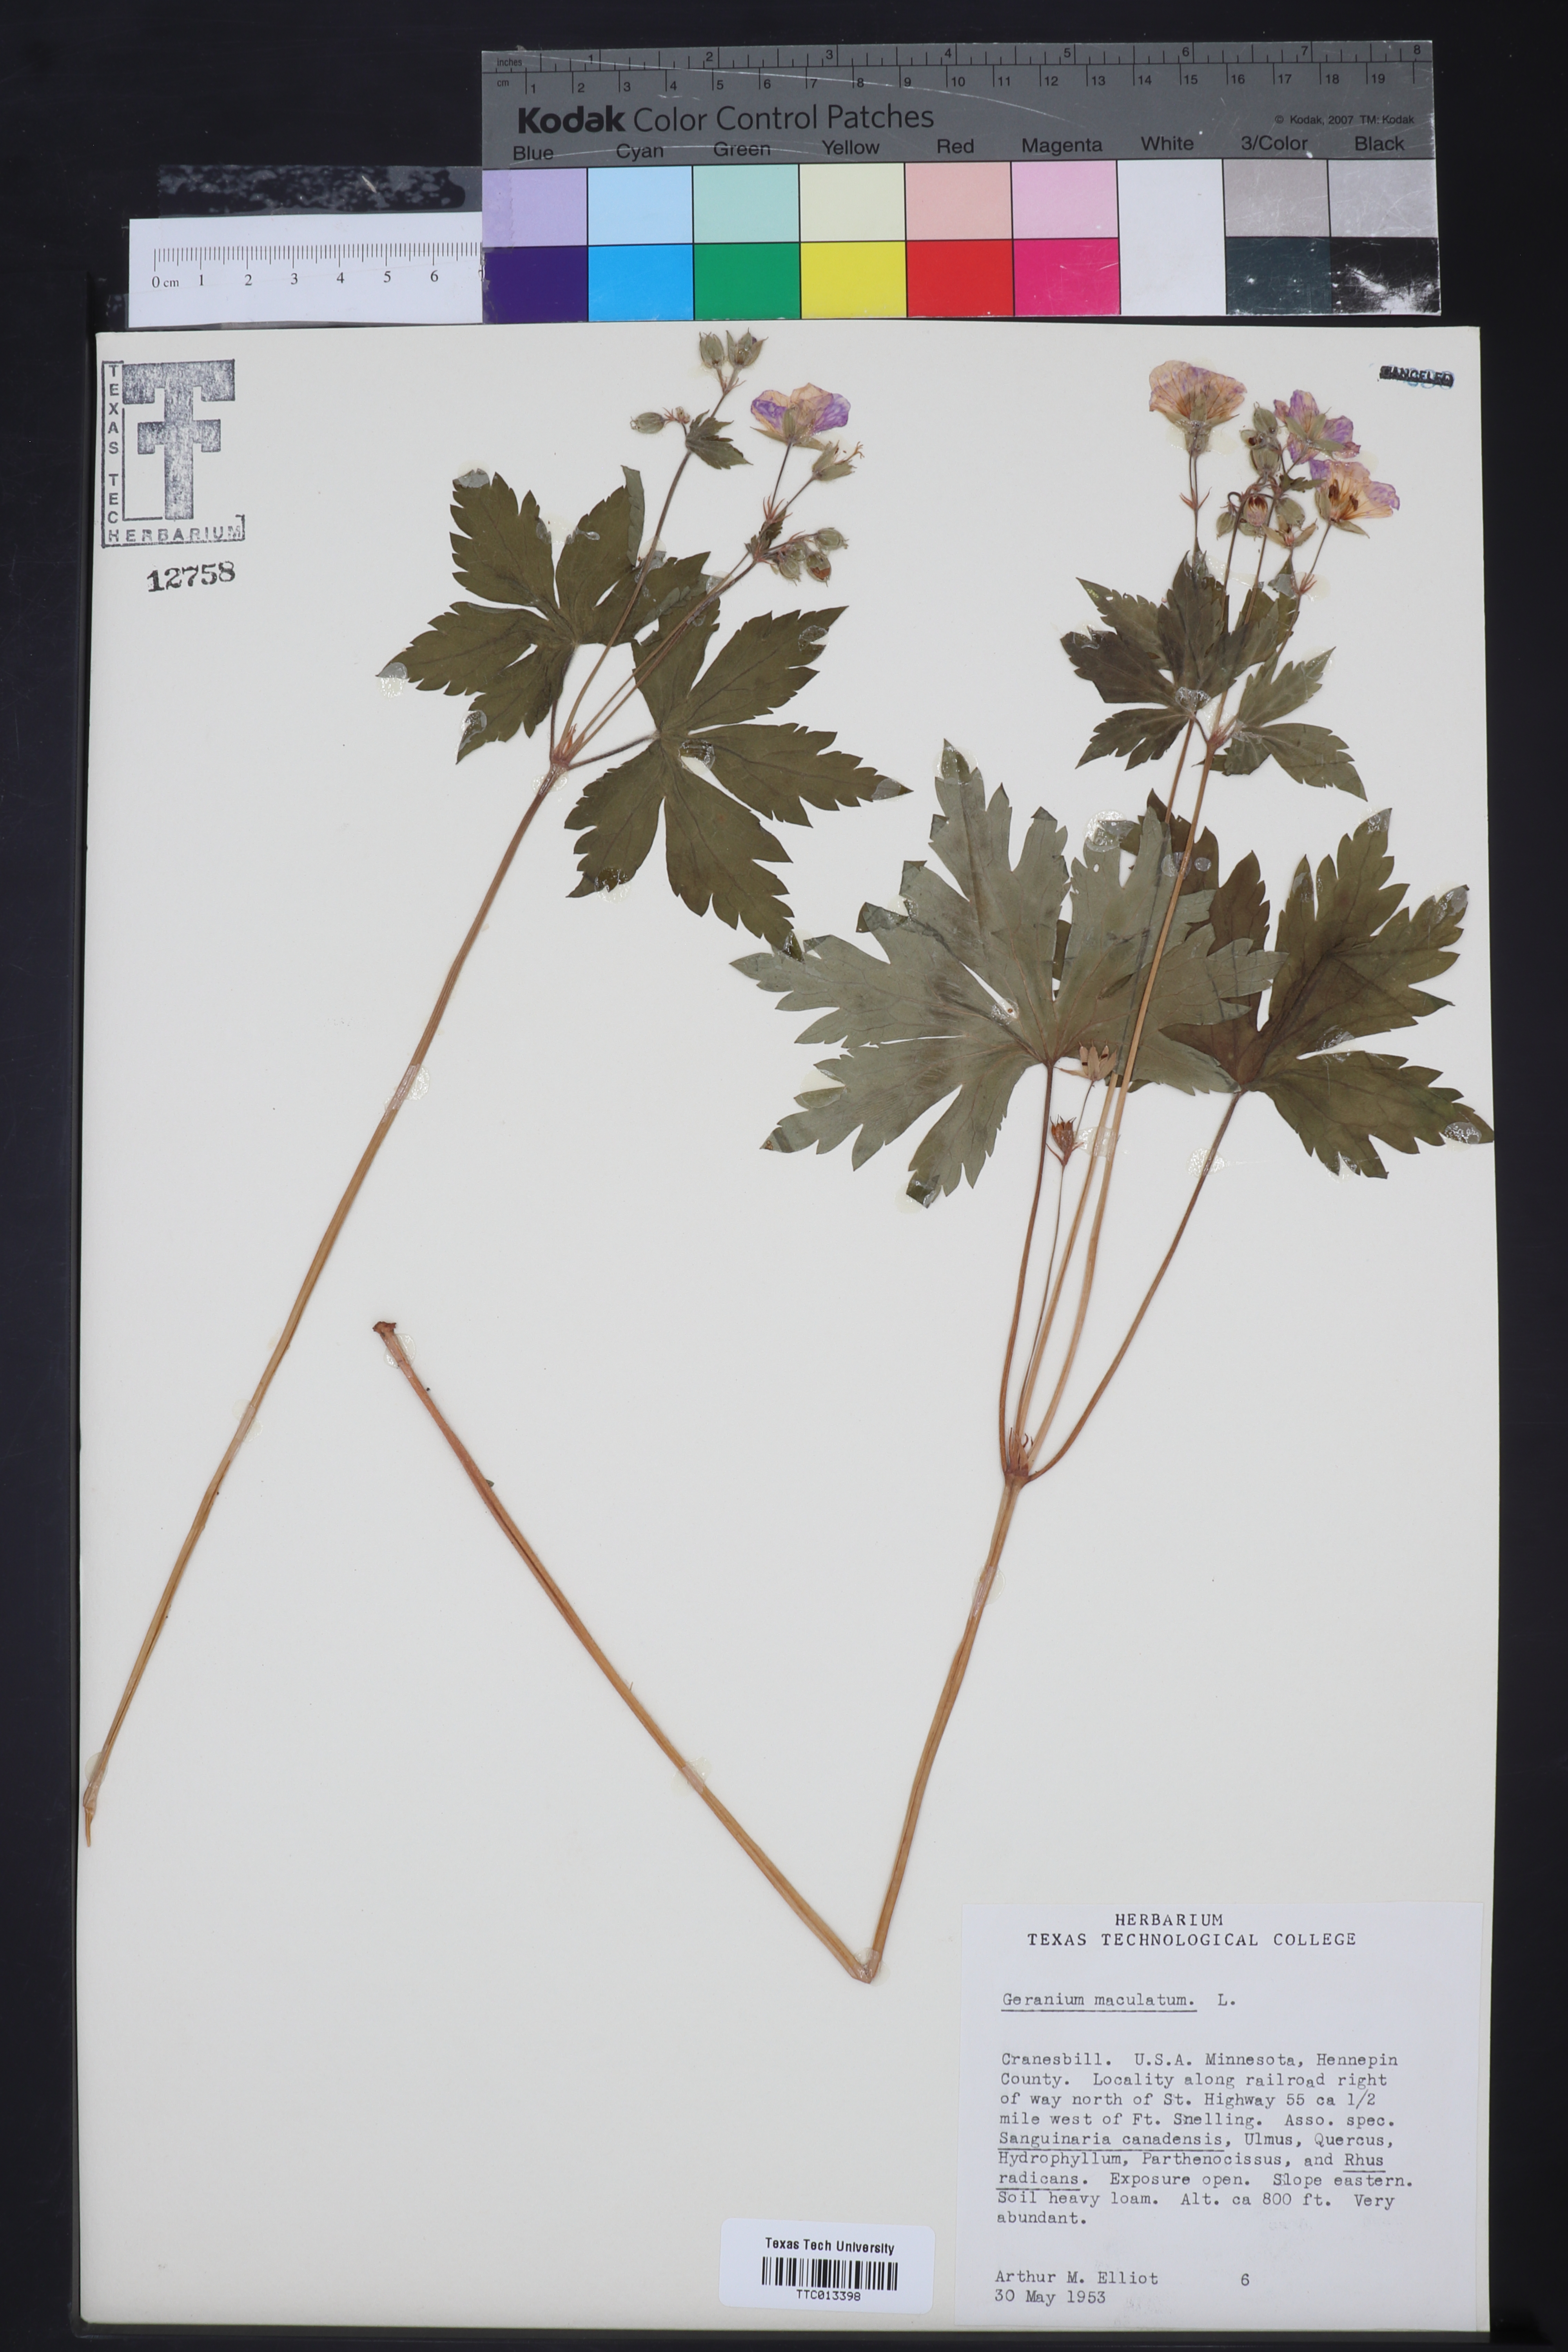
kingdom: Plantae
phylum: Tracheophyta
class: Magnoliopsida
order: Geraniales
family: Geraniaceae
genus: Geranium
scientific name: Geranium maculatum
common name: Spotted geranium
